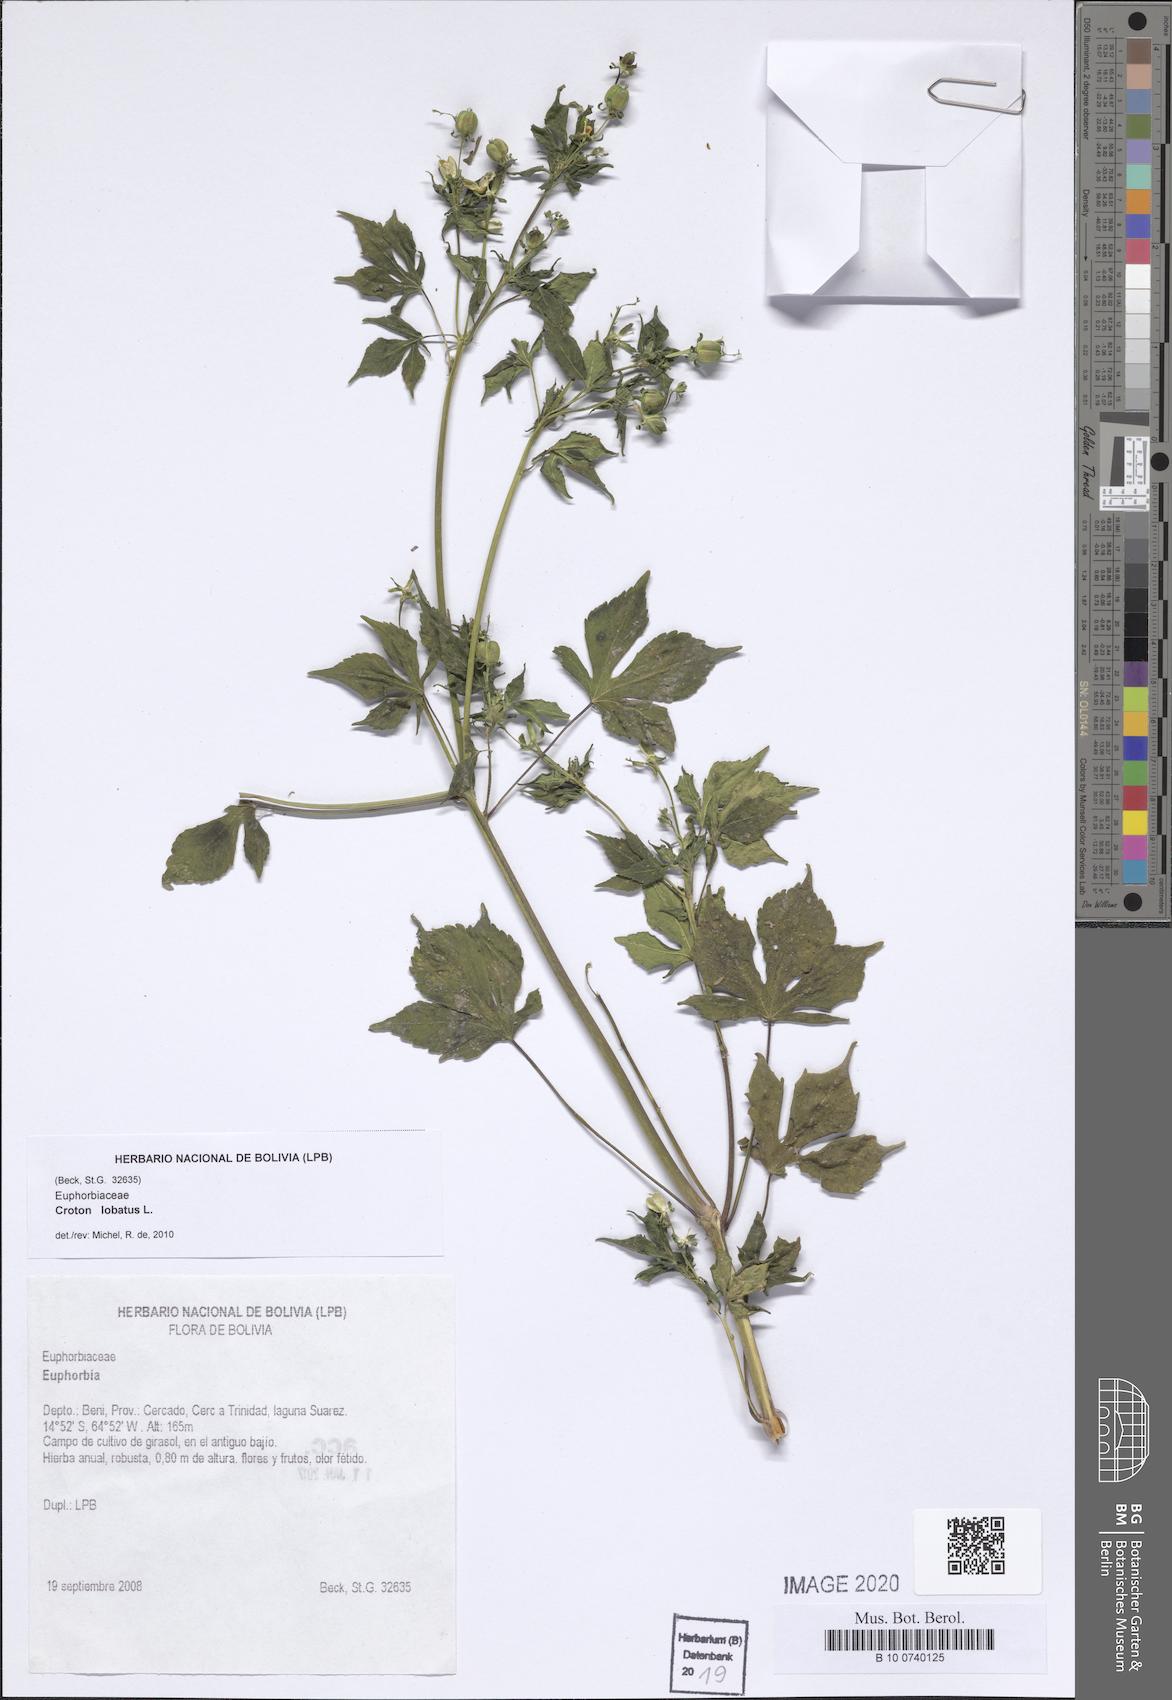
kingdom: Plantae
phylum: Tracheophyta
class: Magnoliopsida
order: Malpighiales
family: Euphorbiaceae
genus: Astraea
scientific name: Astraea lobata
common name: Lobed croton
